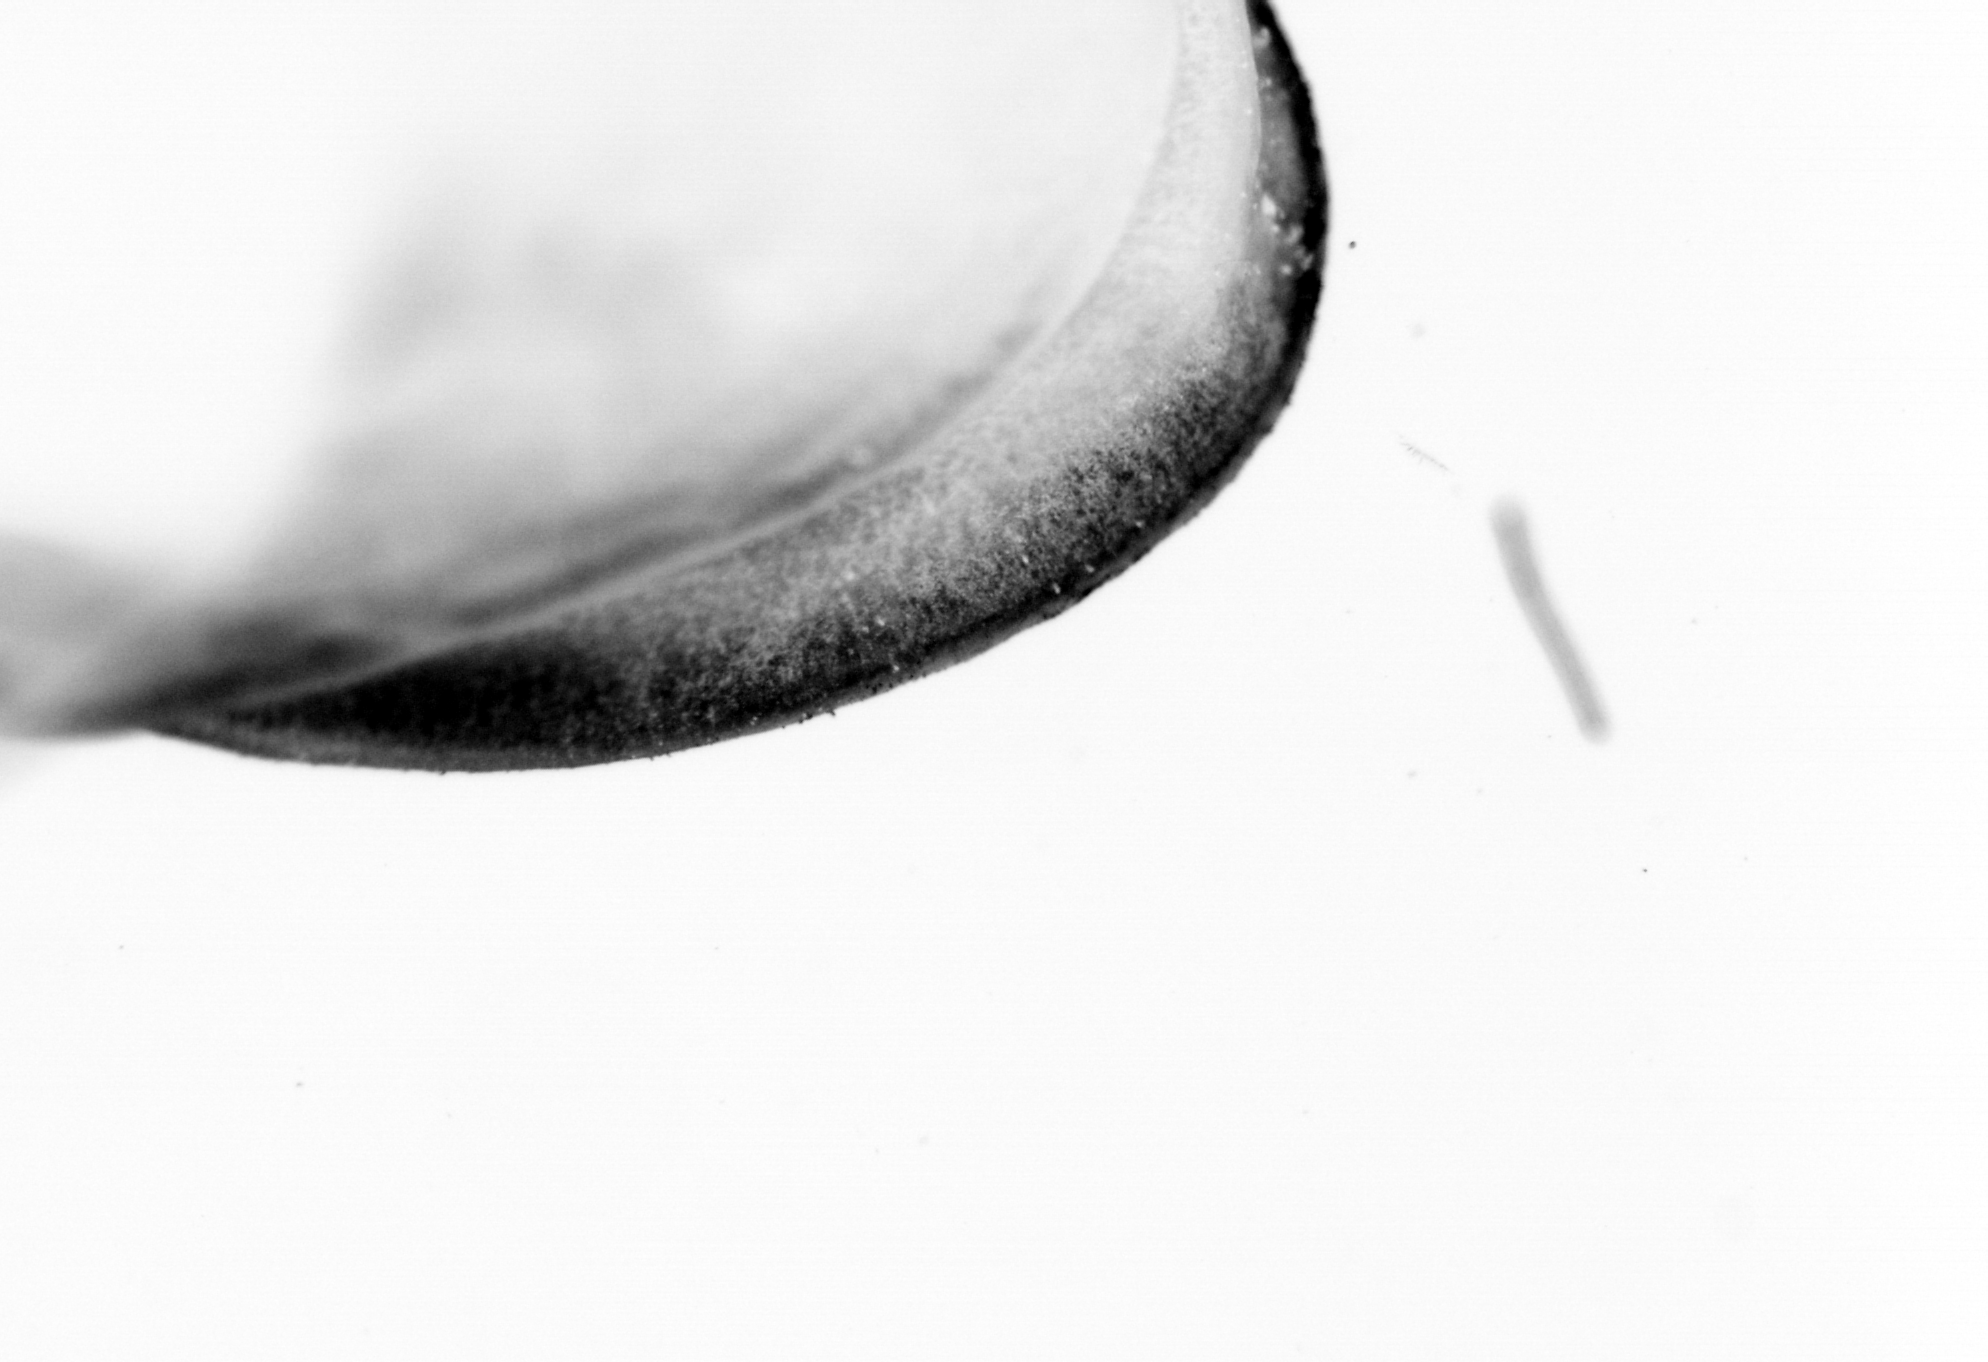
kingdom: Animalia
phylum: Chordata
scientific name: Chordata
